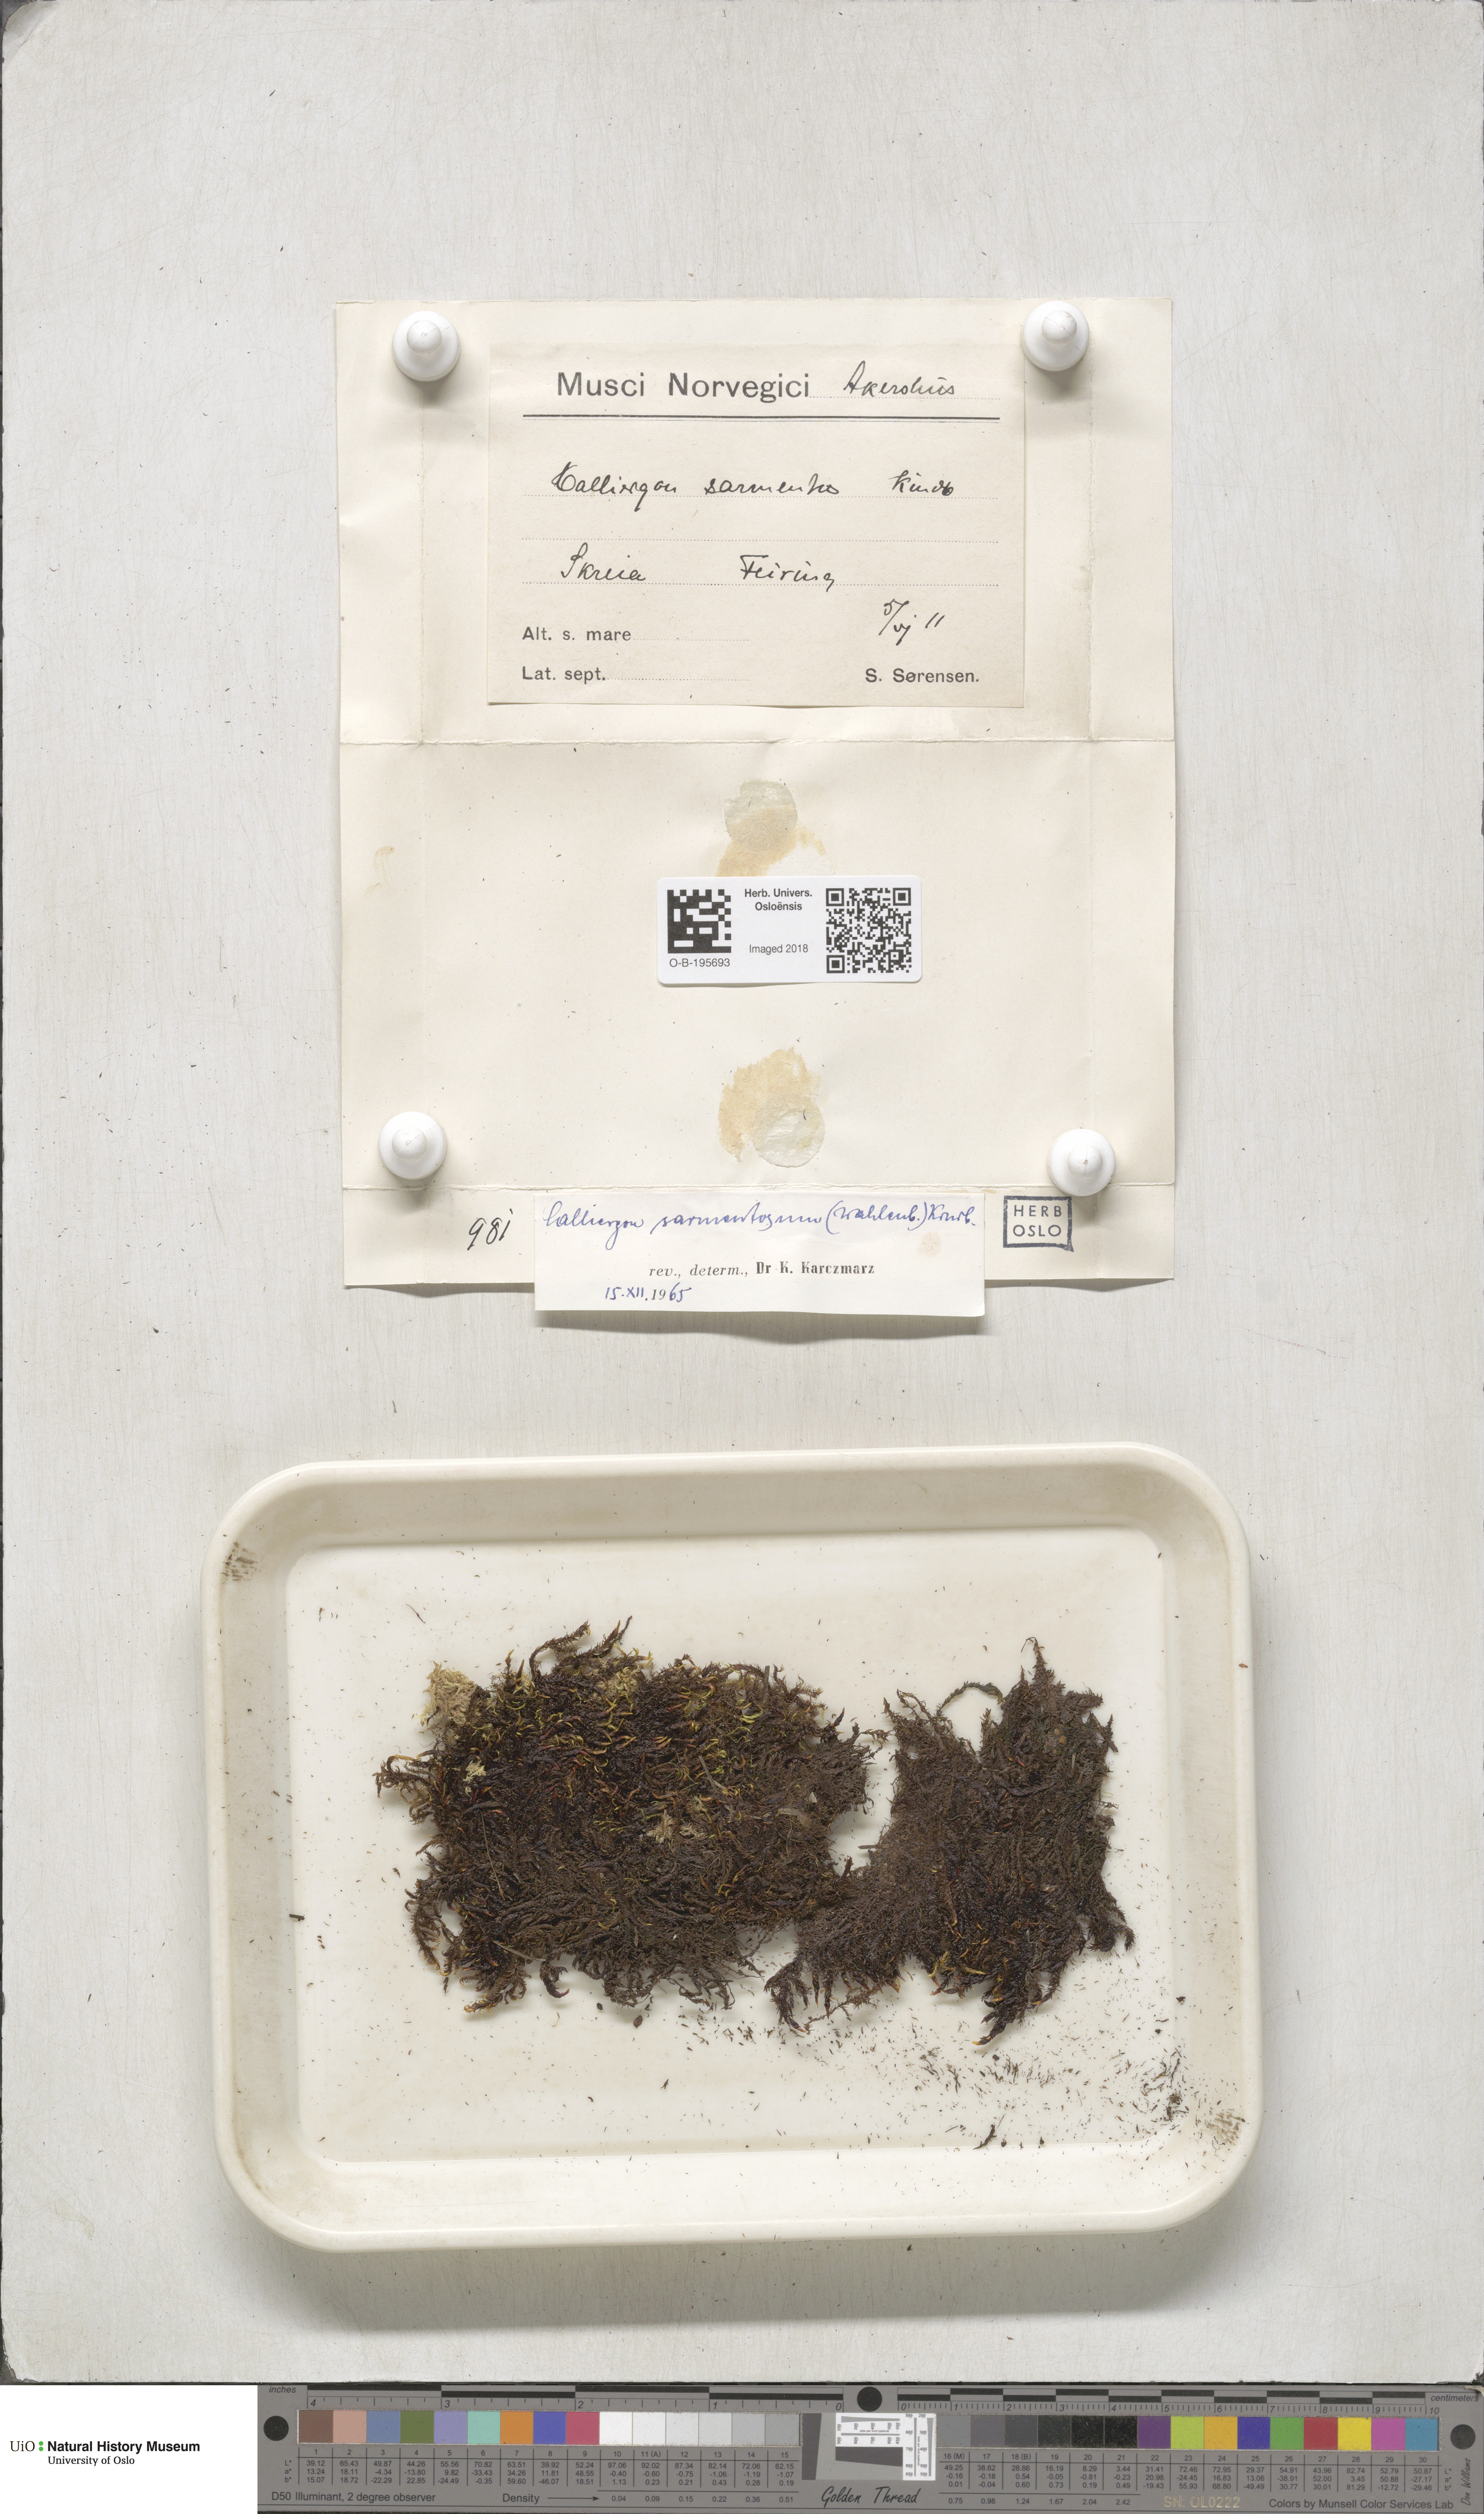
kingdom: Plantae
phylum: Bryophyta
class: Bryopsida
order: Hypnales
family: Calliergonaceae
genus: Warnstorfia
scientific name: Warnstorfia pseudostraminea
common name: Spring hook moss
